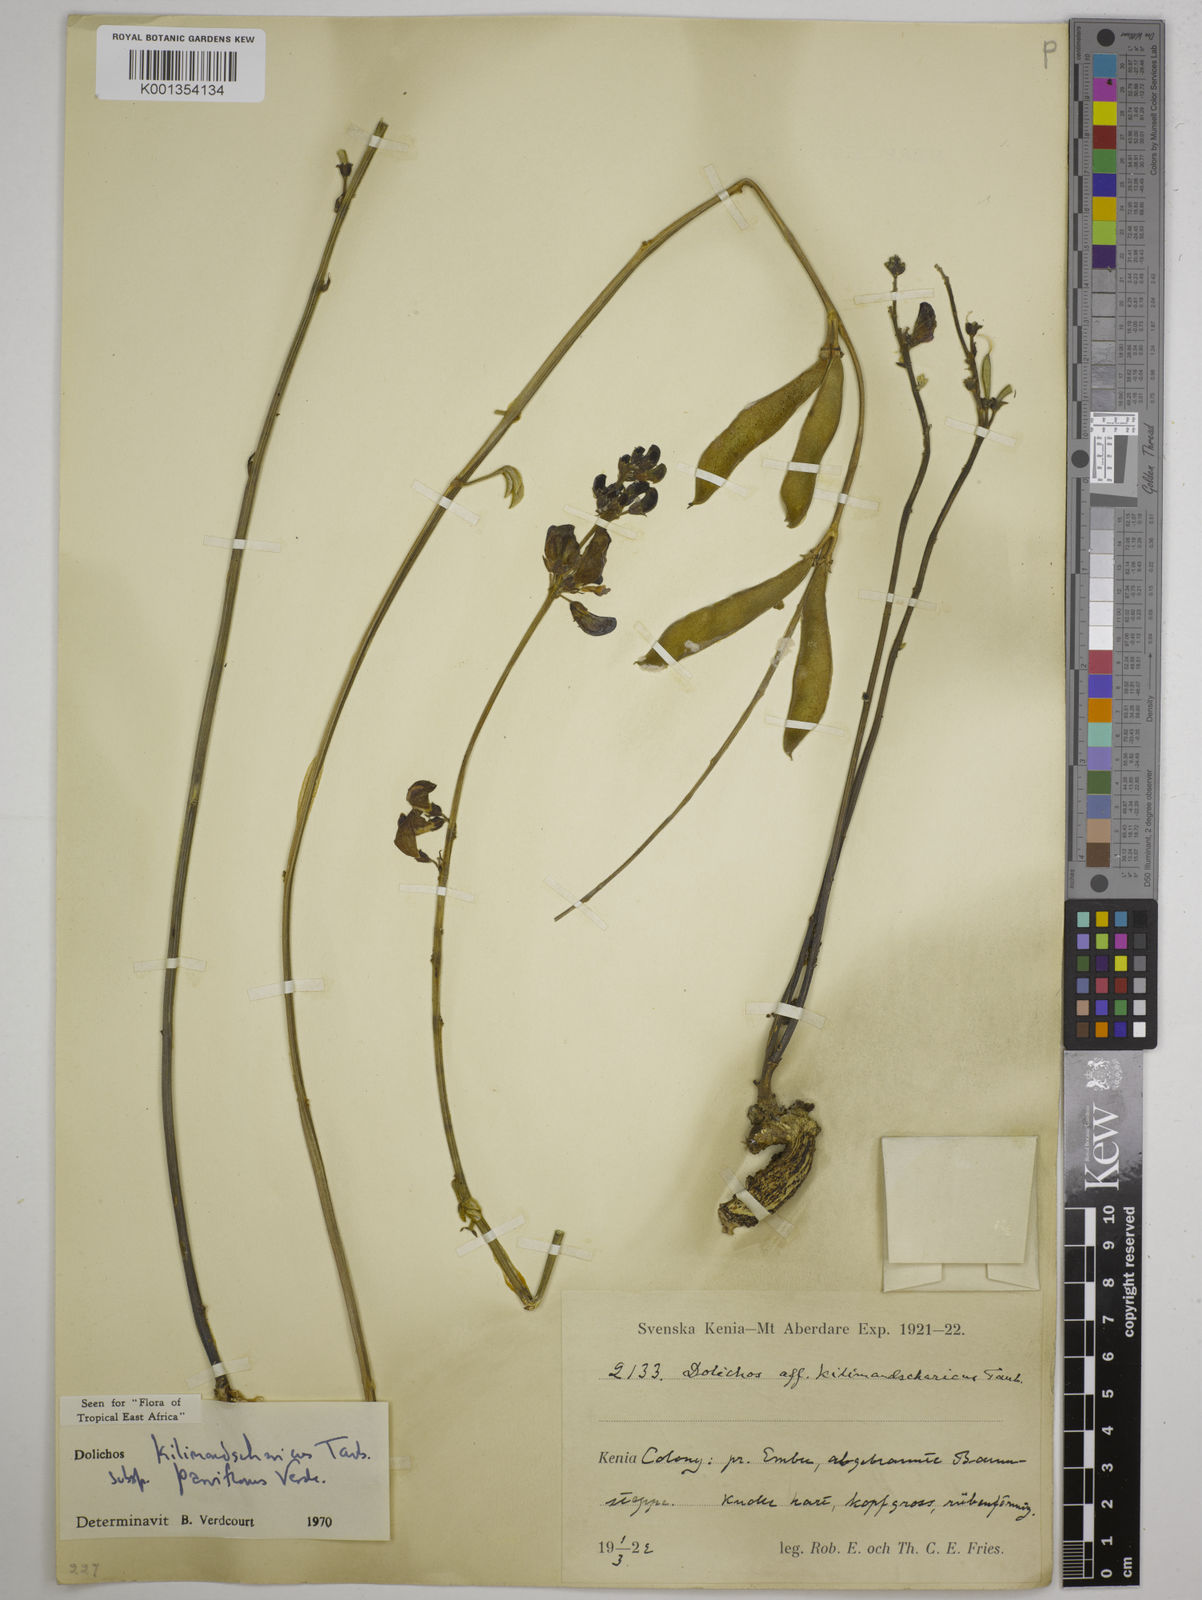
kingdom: Plantae
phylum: Tracheophyta
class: Magnoliopsida
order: Fabales
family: Fabaceae
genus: Dolichos
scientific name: Dolichos
